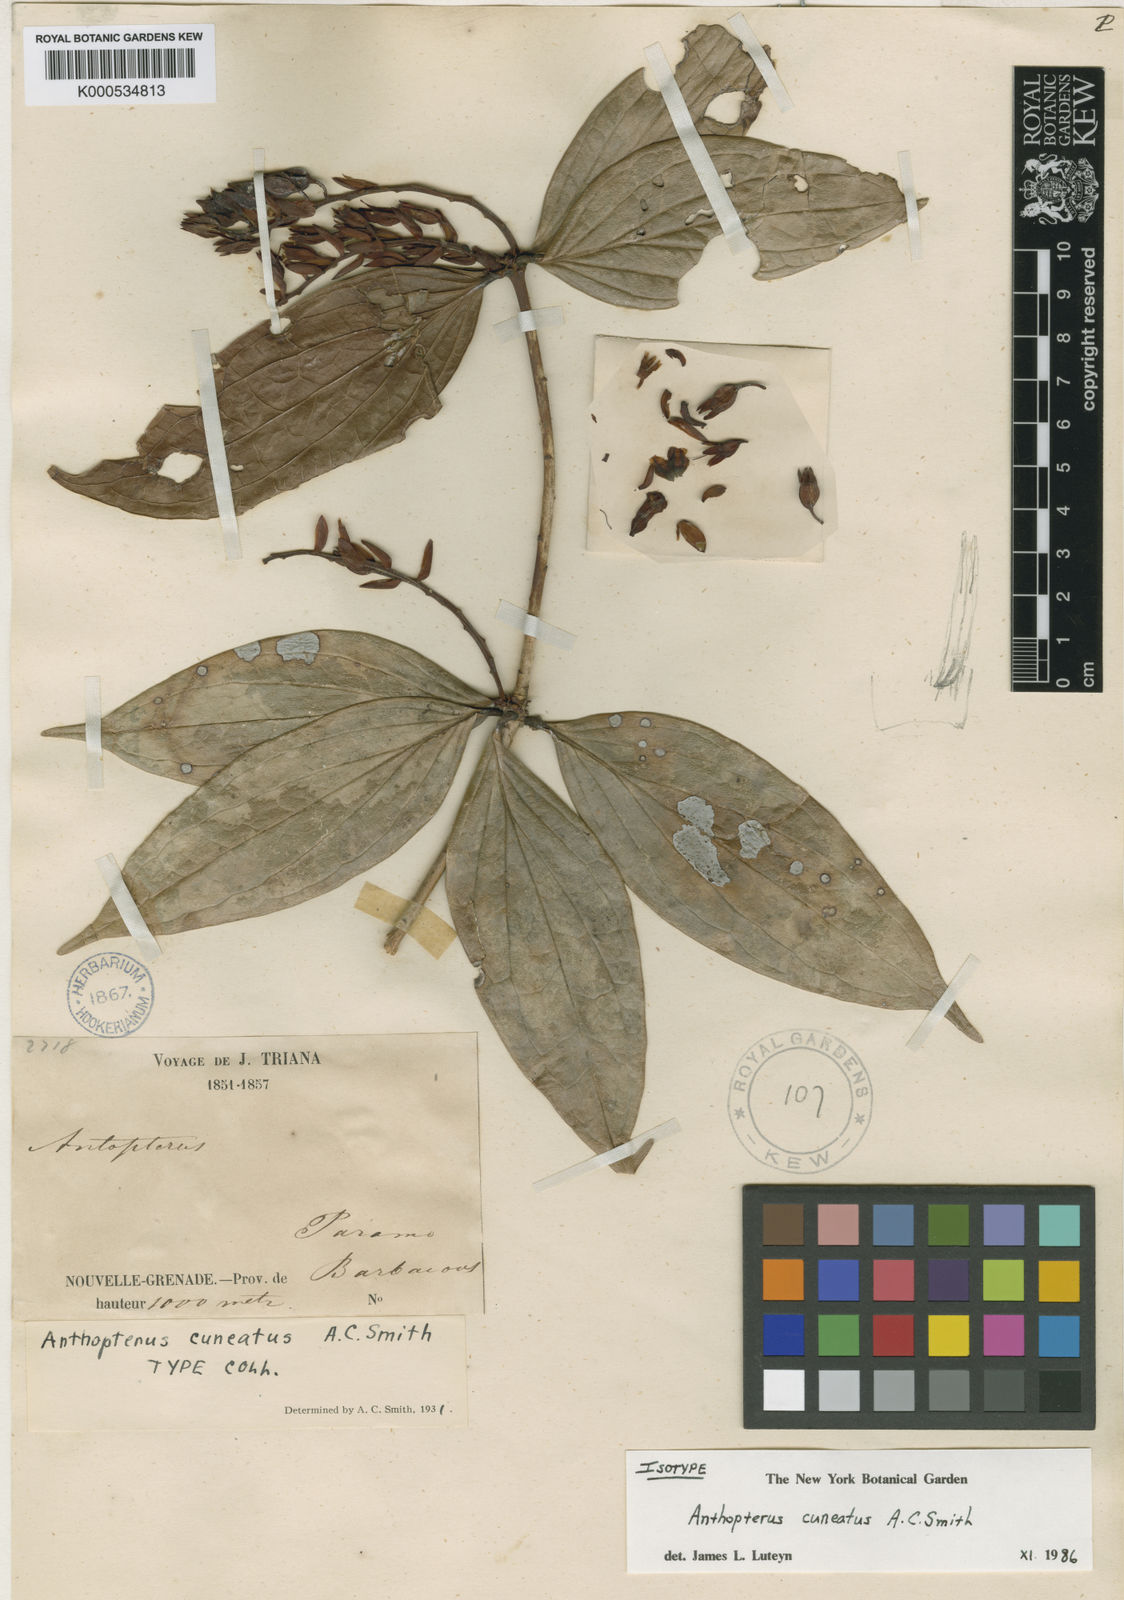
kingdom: Plantae
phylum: Tracheophyta
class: Magnoliopsida
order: Ericales
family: Ericaceae
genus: Anthopterus
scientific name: Anthopterus cuneatus
